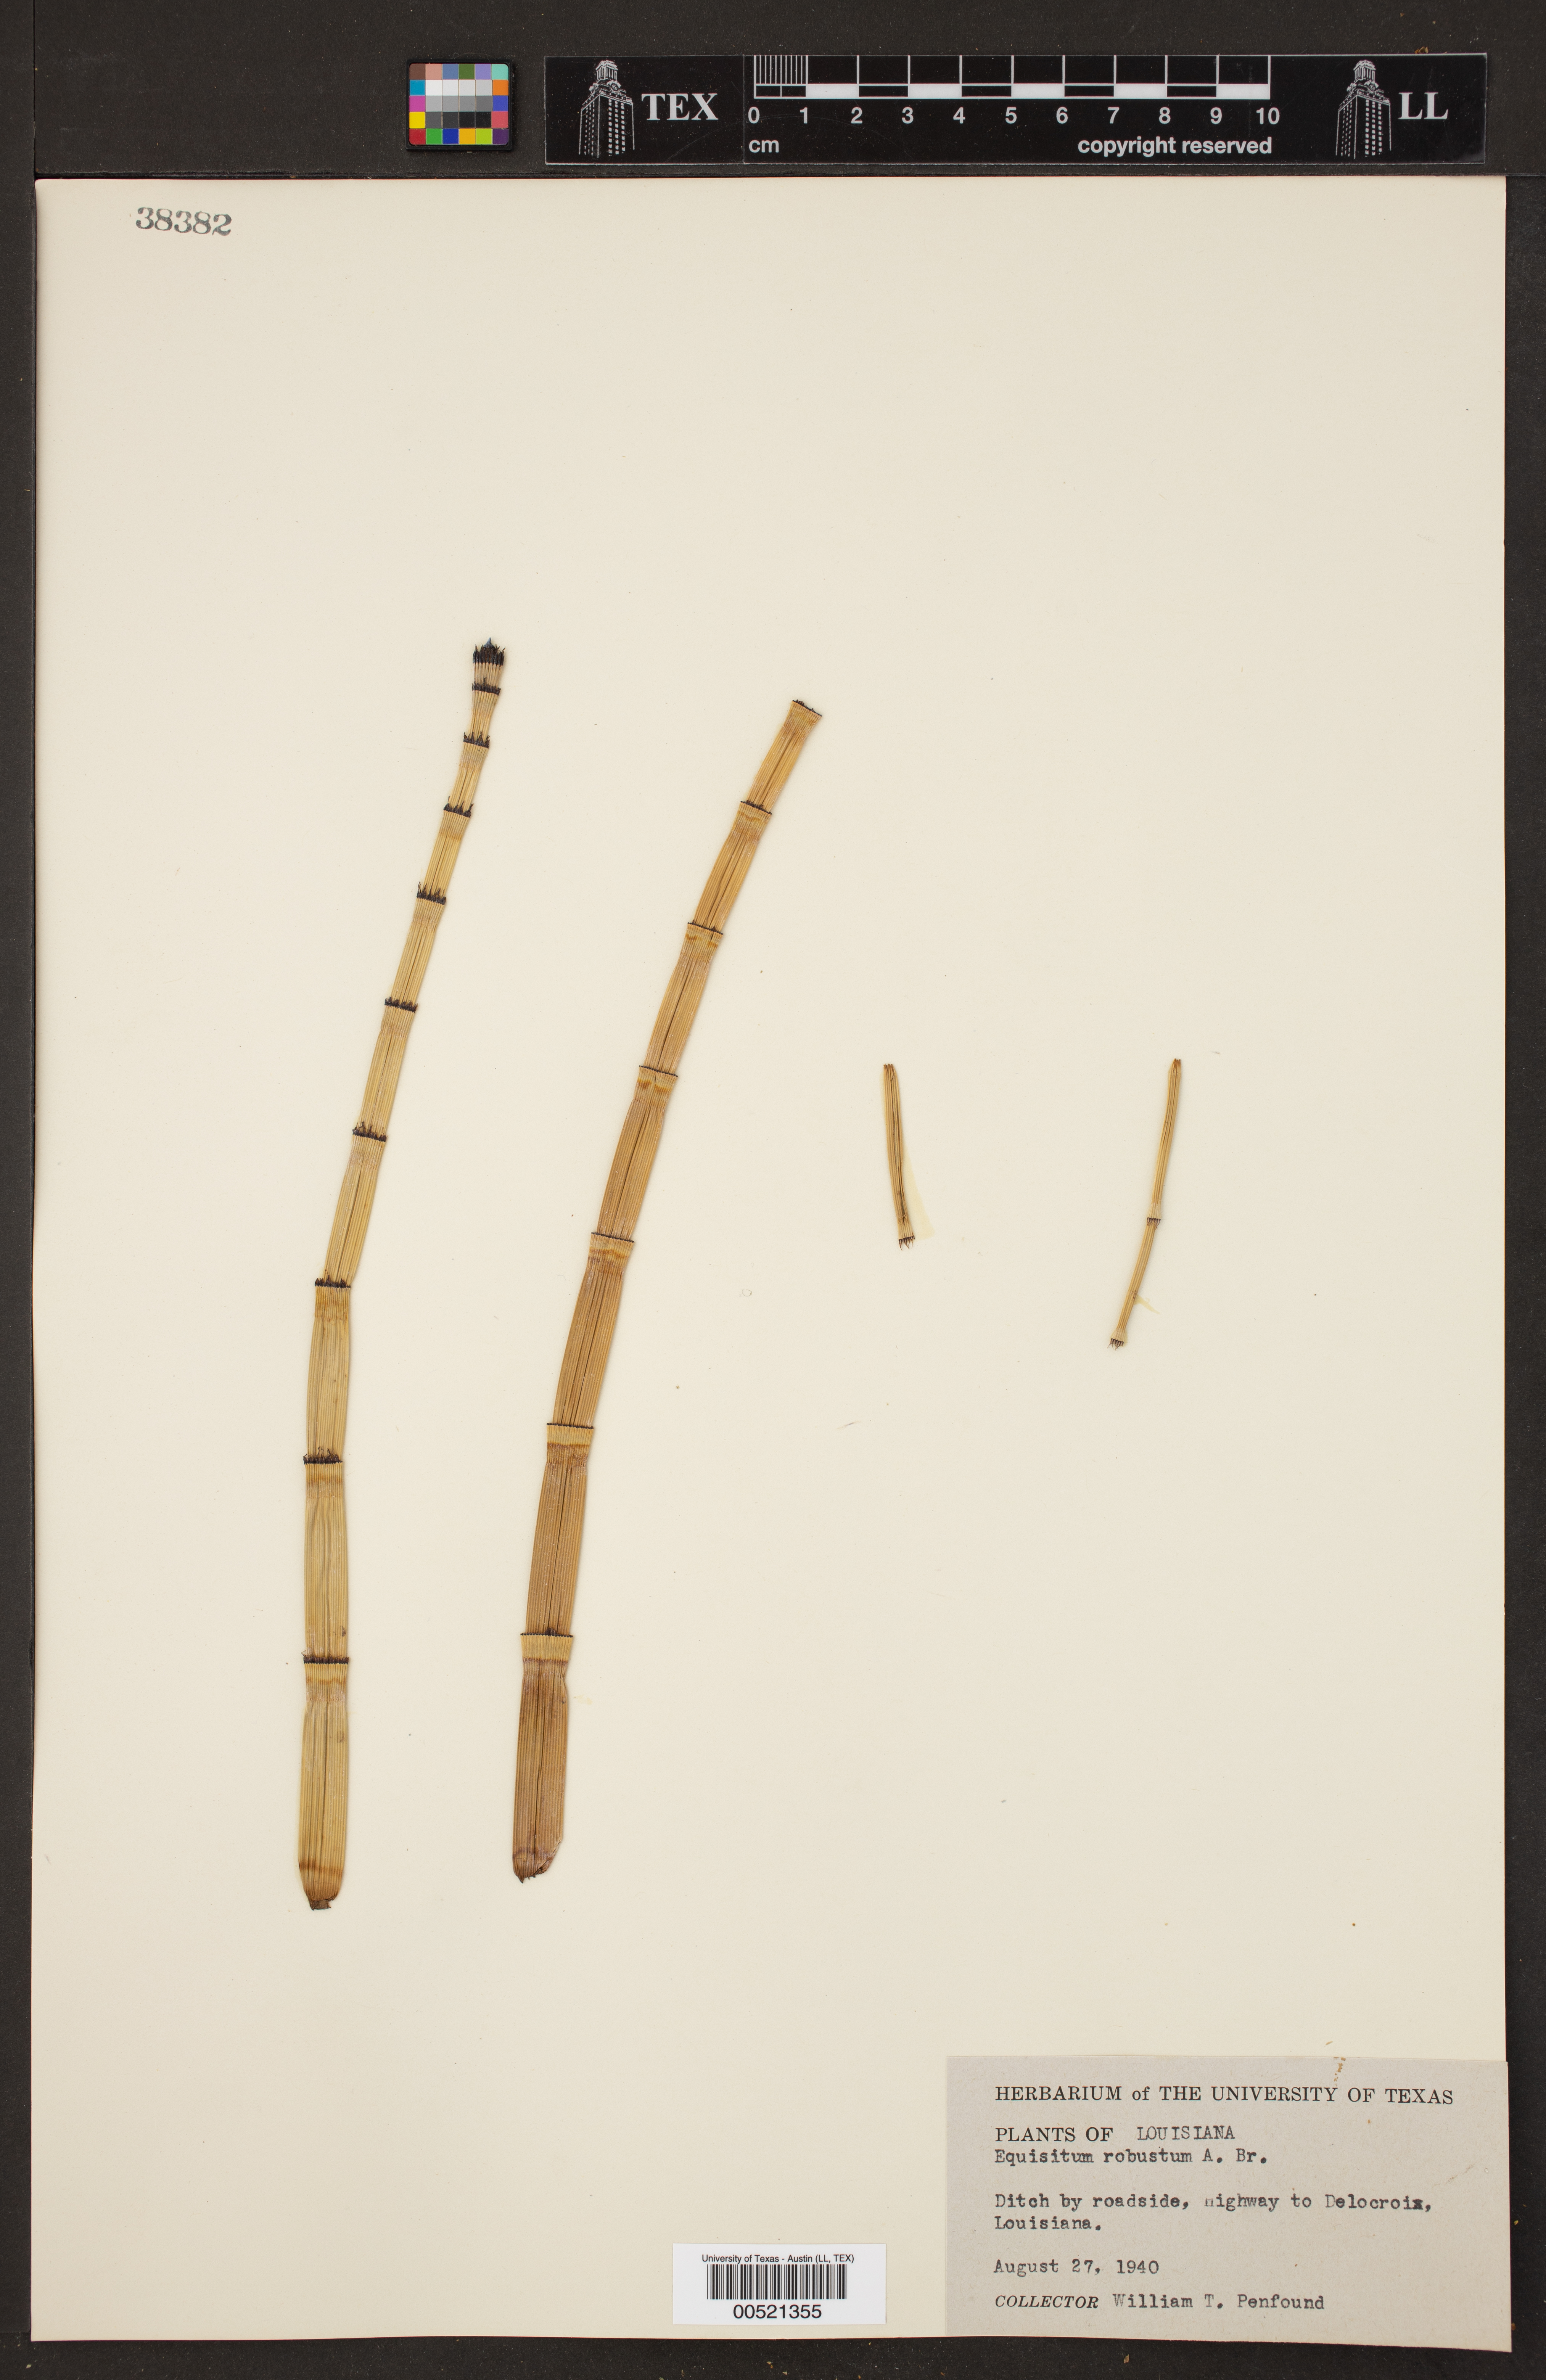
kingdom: Plantae
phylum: Tracheophyta
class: Polypodiopsida
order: Equisetales
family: Equisetaceae
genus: Equisetum
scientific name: Equisetum
